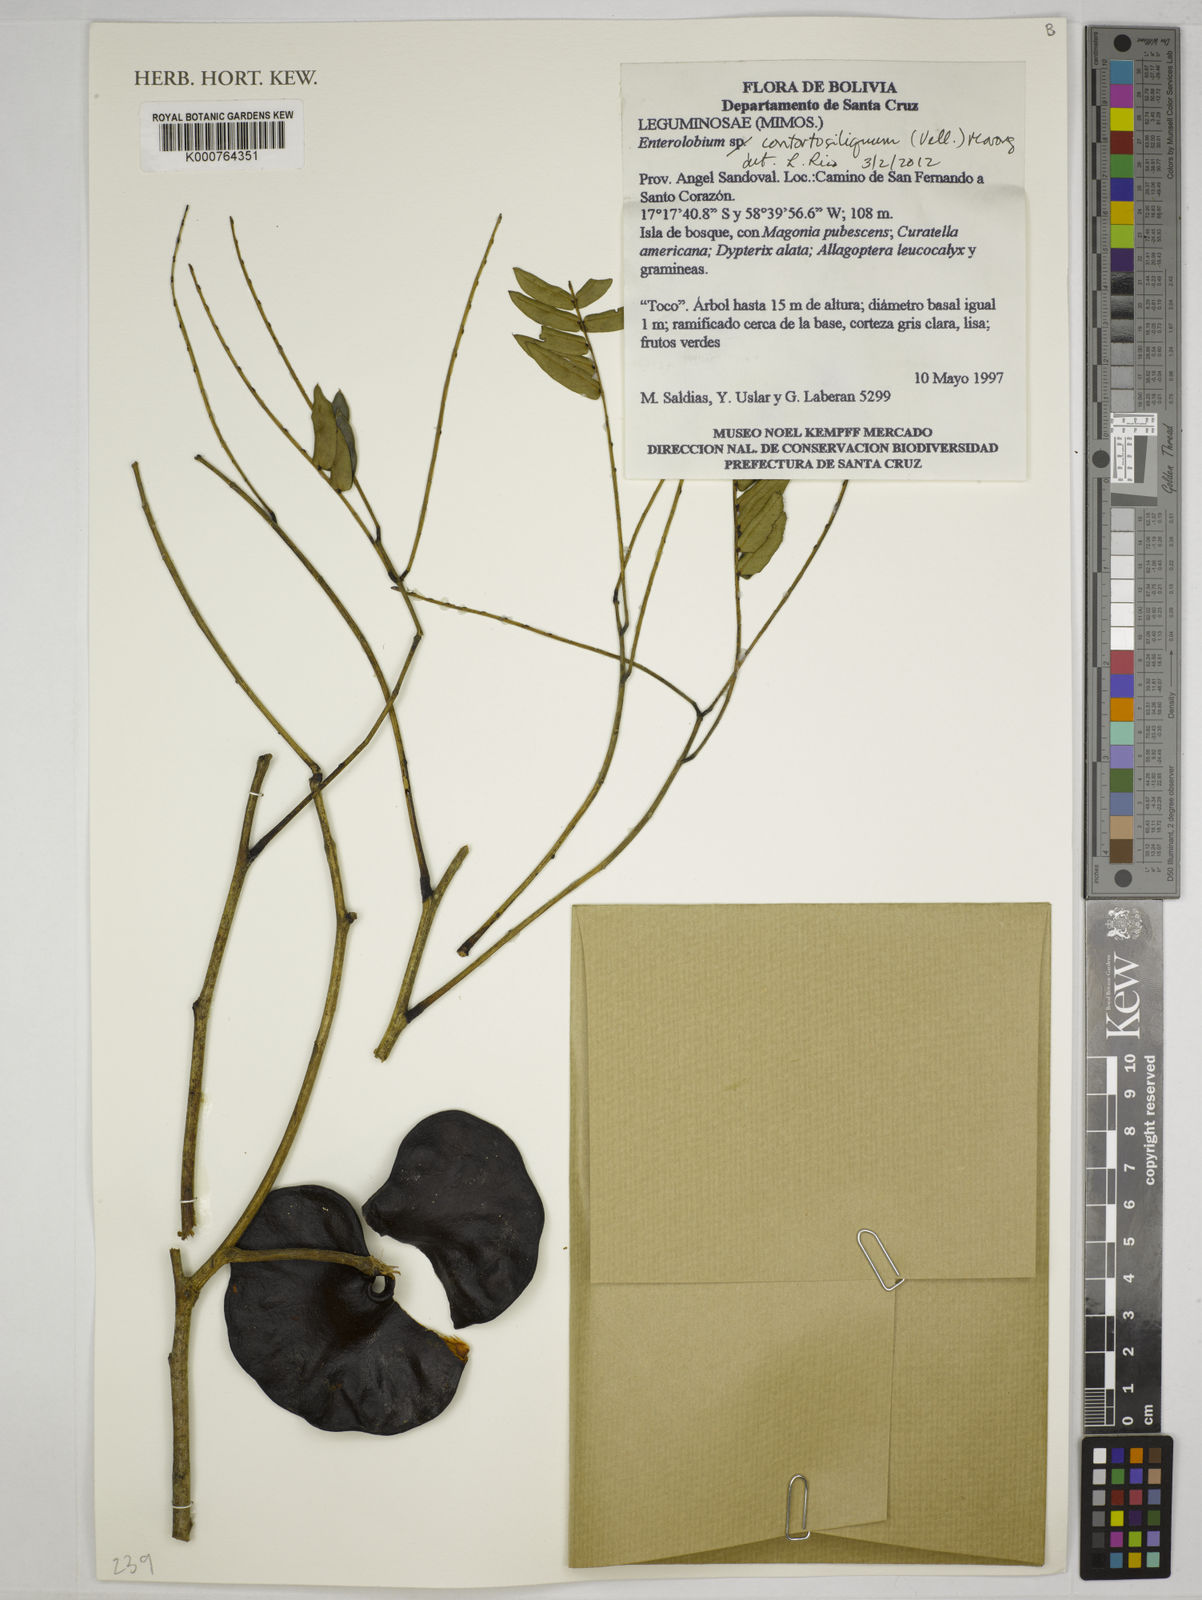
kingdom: Plantae
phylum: Tracheophyta
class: Magnoliopsida
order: Fabales
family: Fabaceae
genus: Enterolobium
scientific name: Enterolobium
